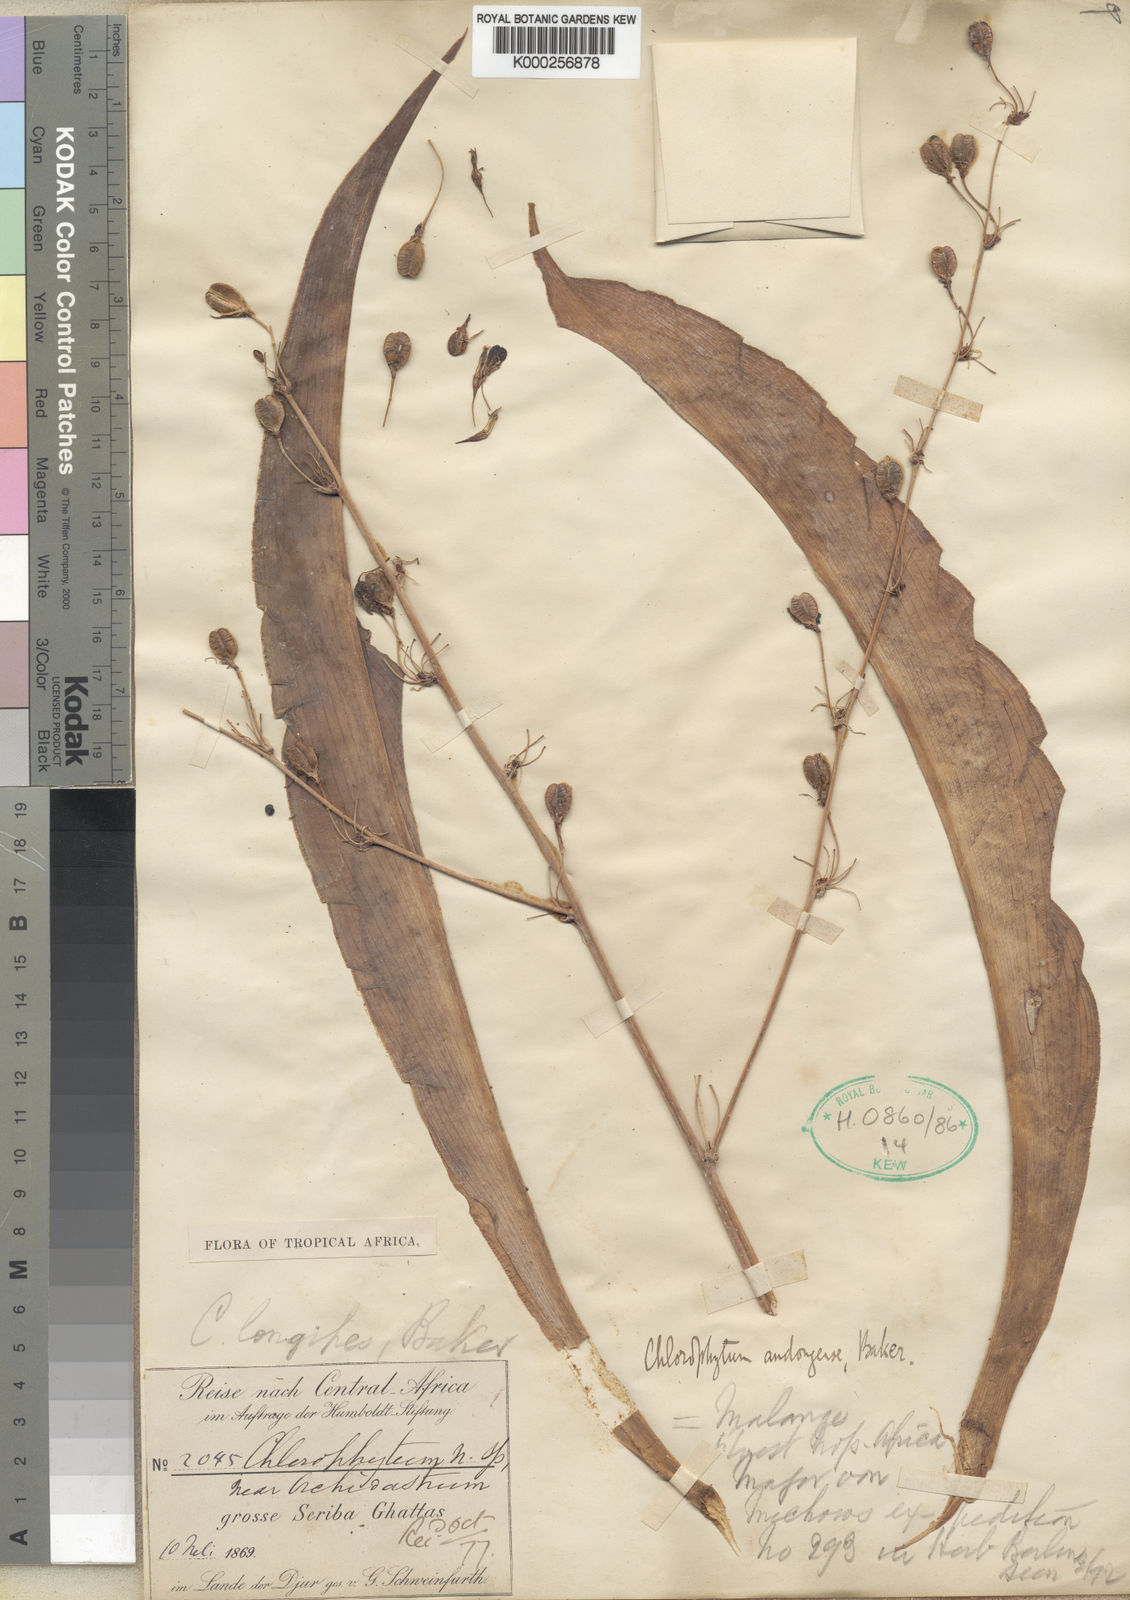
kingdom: Plantae
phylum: Tracheophyta
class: Liliopsida
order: Asparagales
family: Asparagaceae
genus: Chlorophytum
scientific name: Chlorophytum andongense
